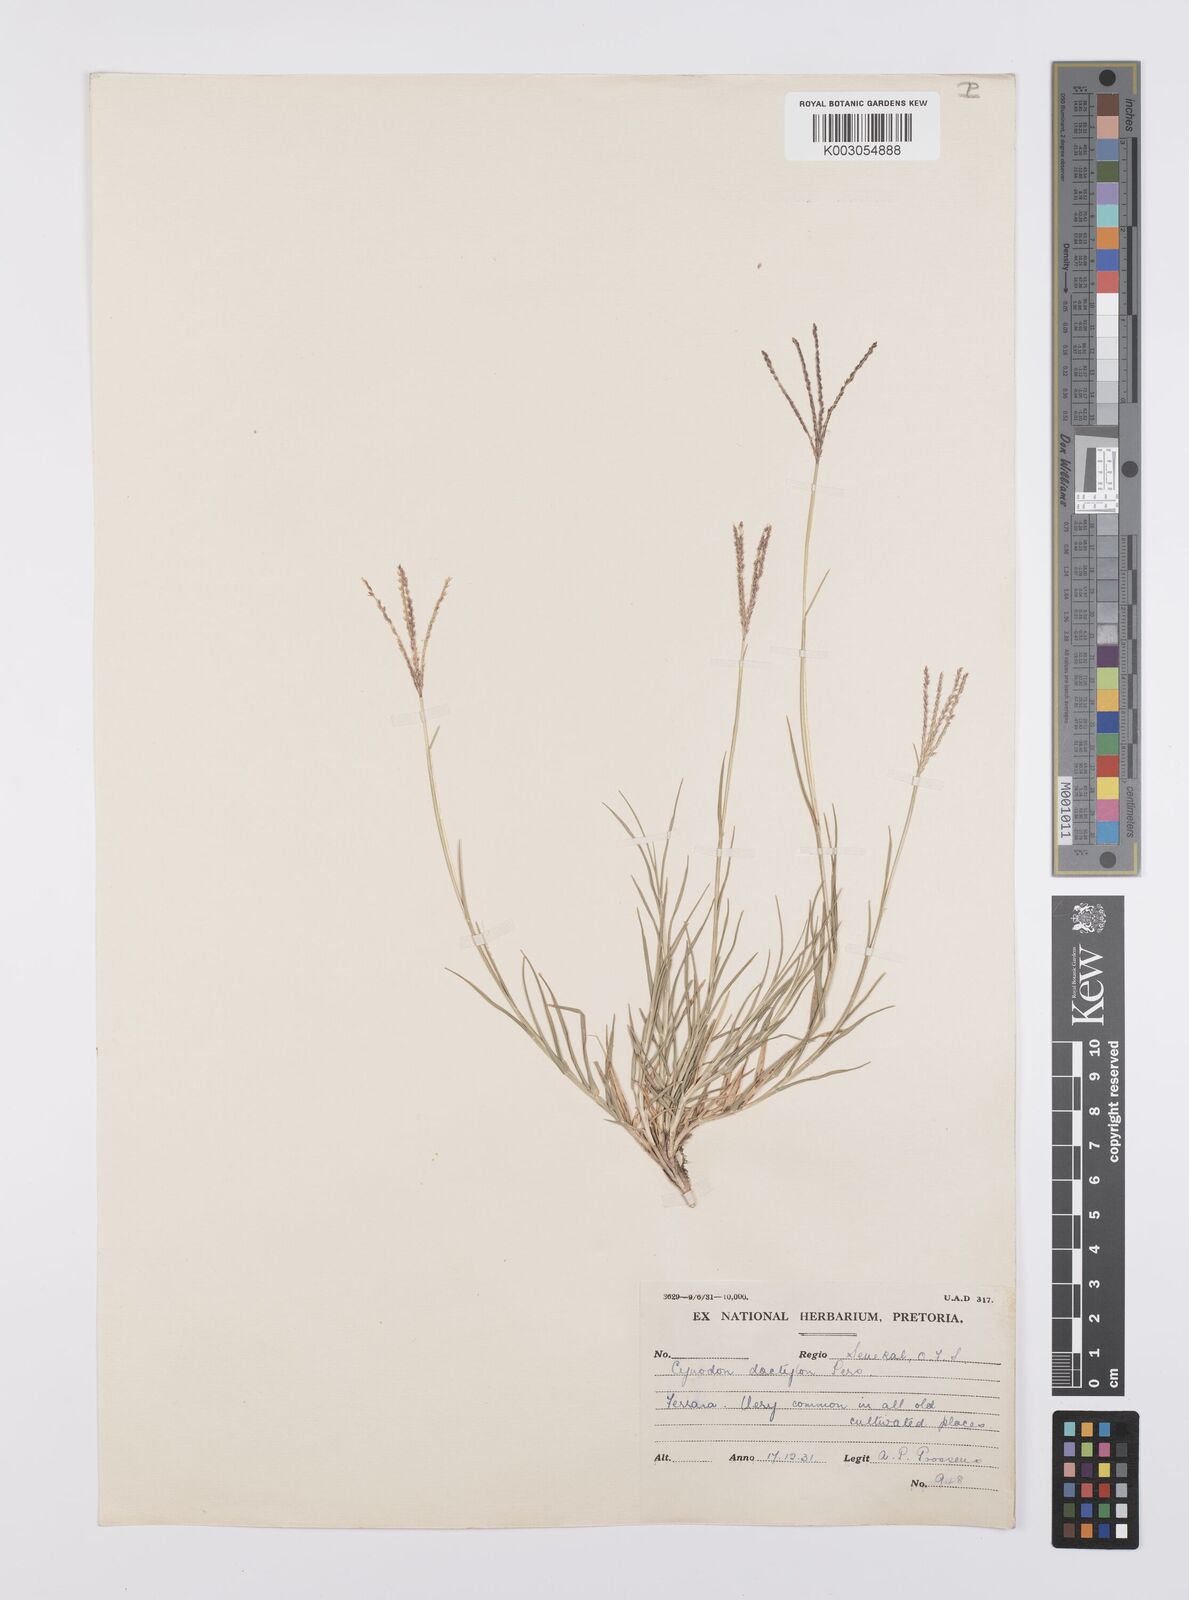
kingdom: Plantae
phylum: Tracheophyta
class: Liliopsida
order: Poales
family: Poaceae
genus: Cynodon
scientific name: Cynodon dactylon
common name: Bermuda grass
